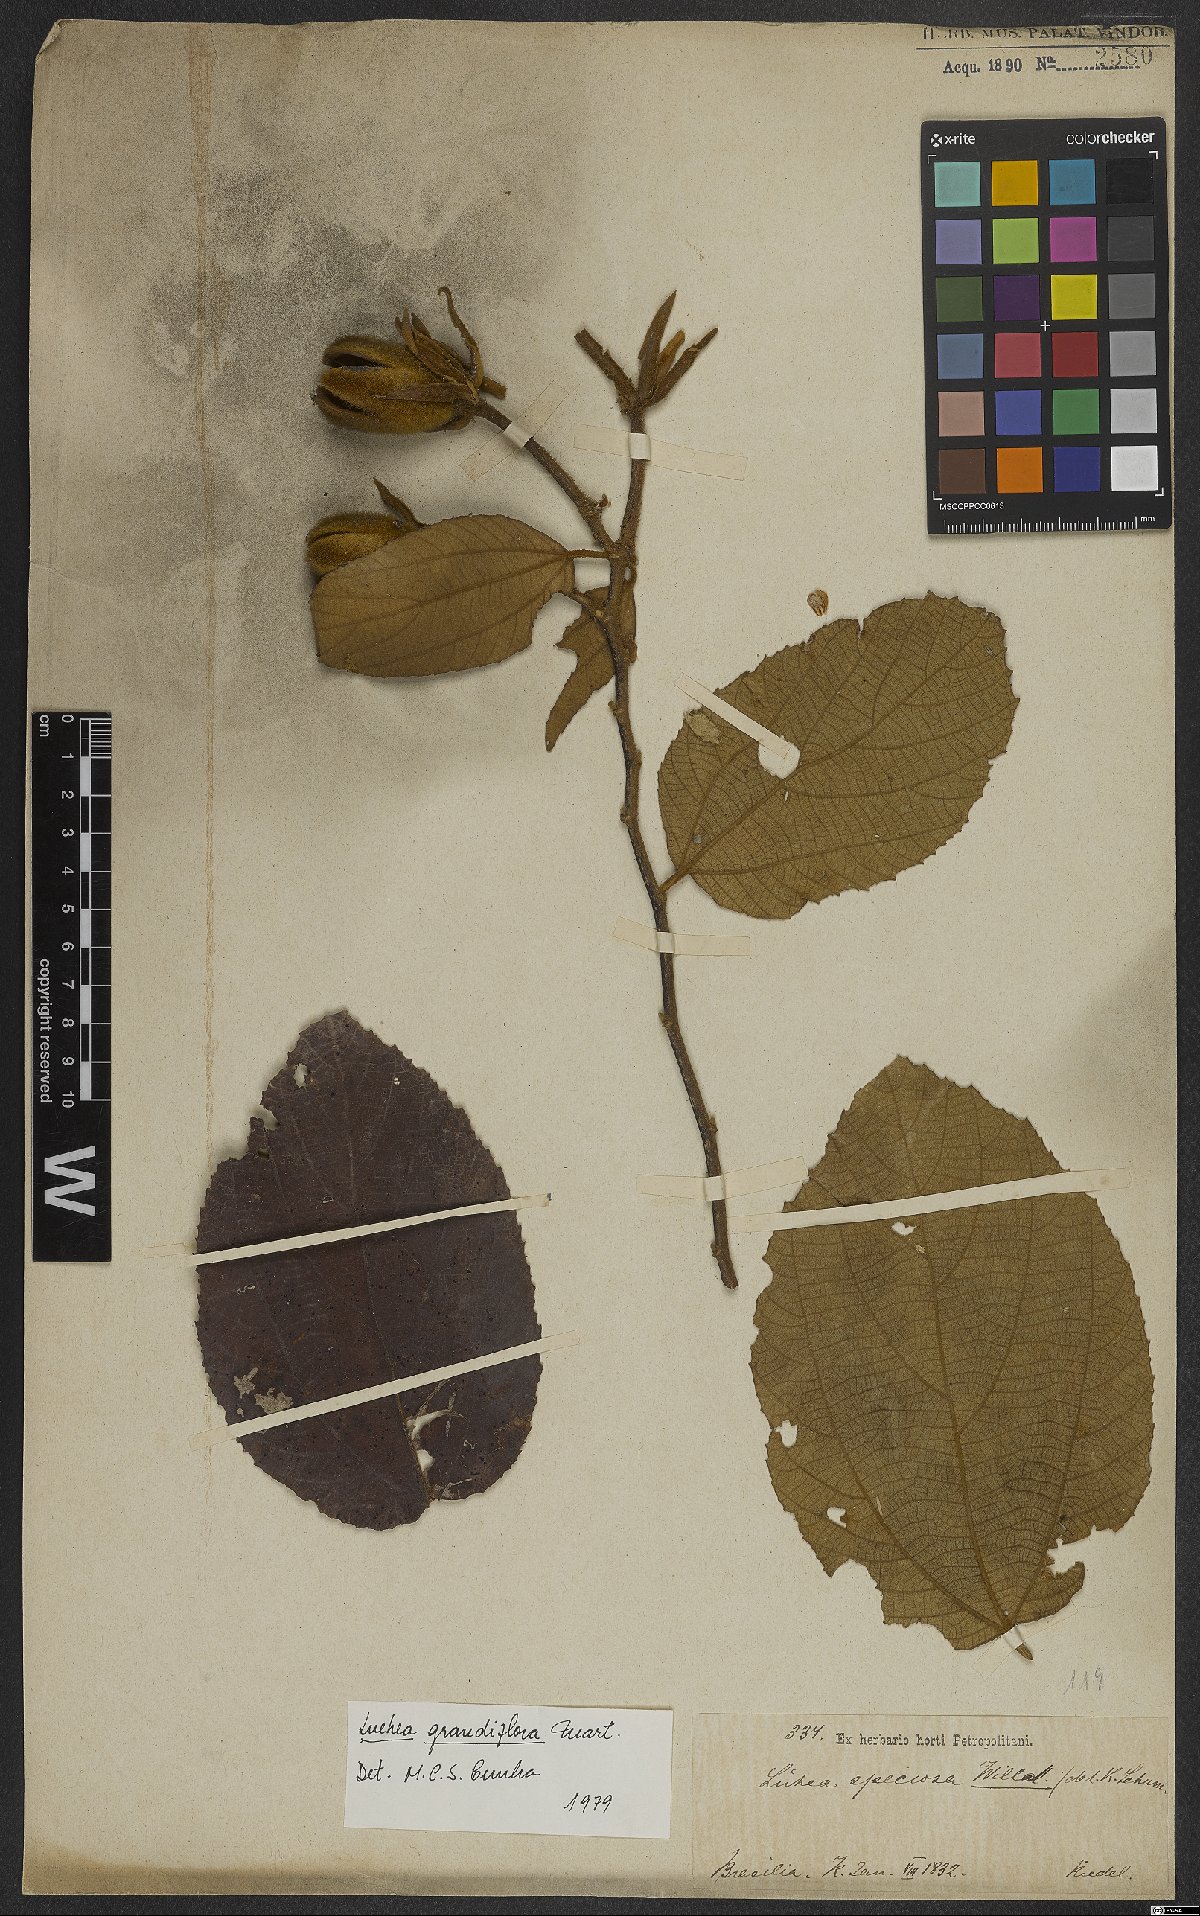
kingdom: Plantae
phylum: Tracheophyta
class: Magnoliopsida
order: Malvales
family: Malvaceae
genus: Luehea
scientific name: Luehea grandiflora
